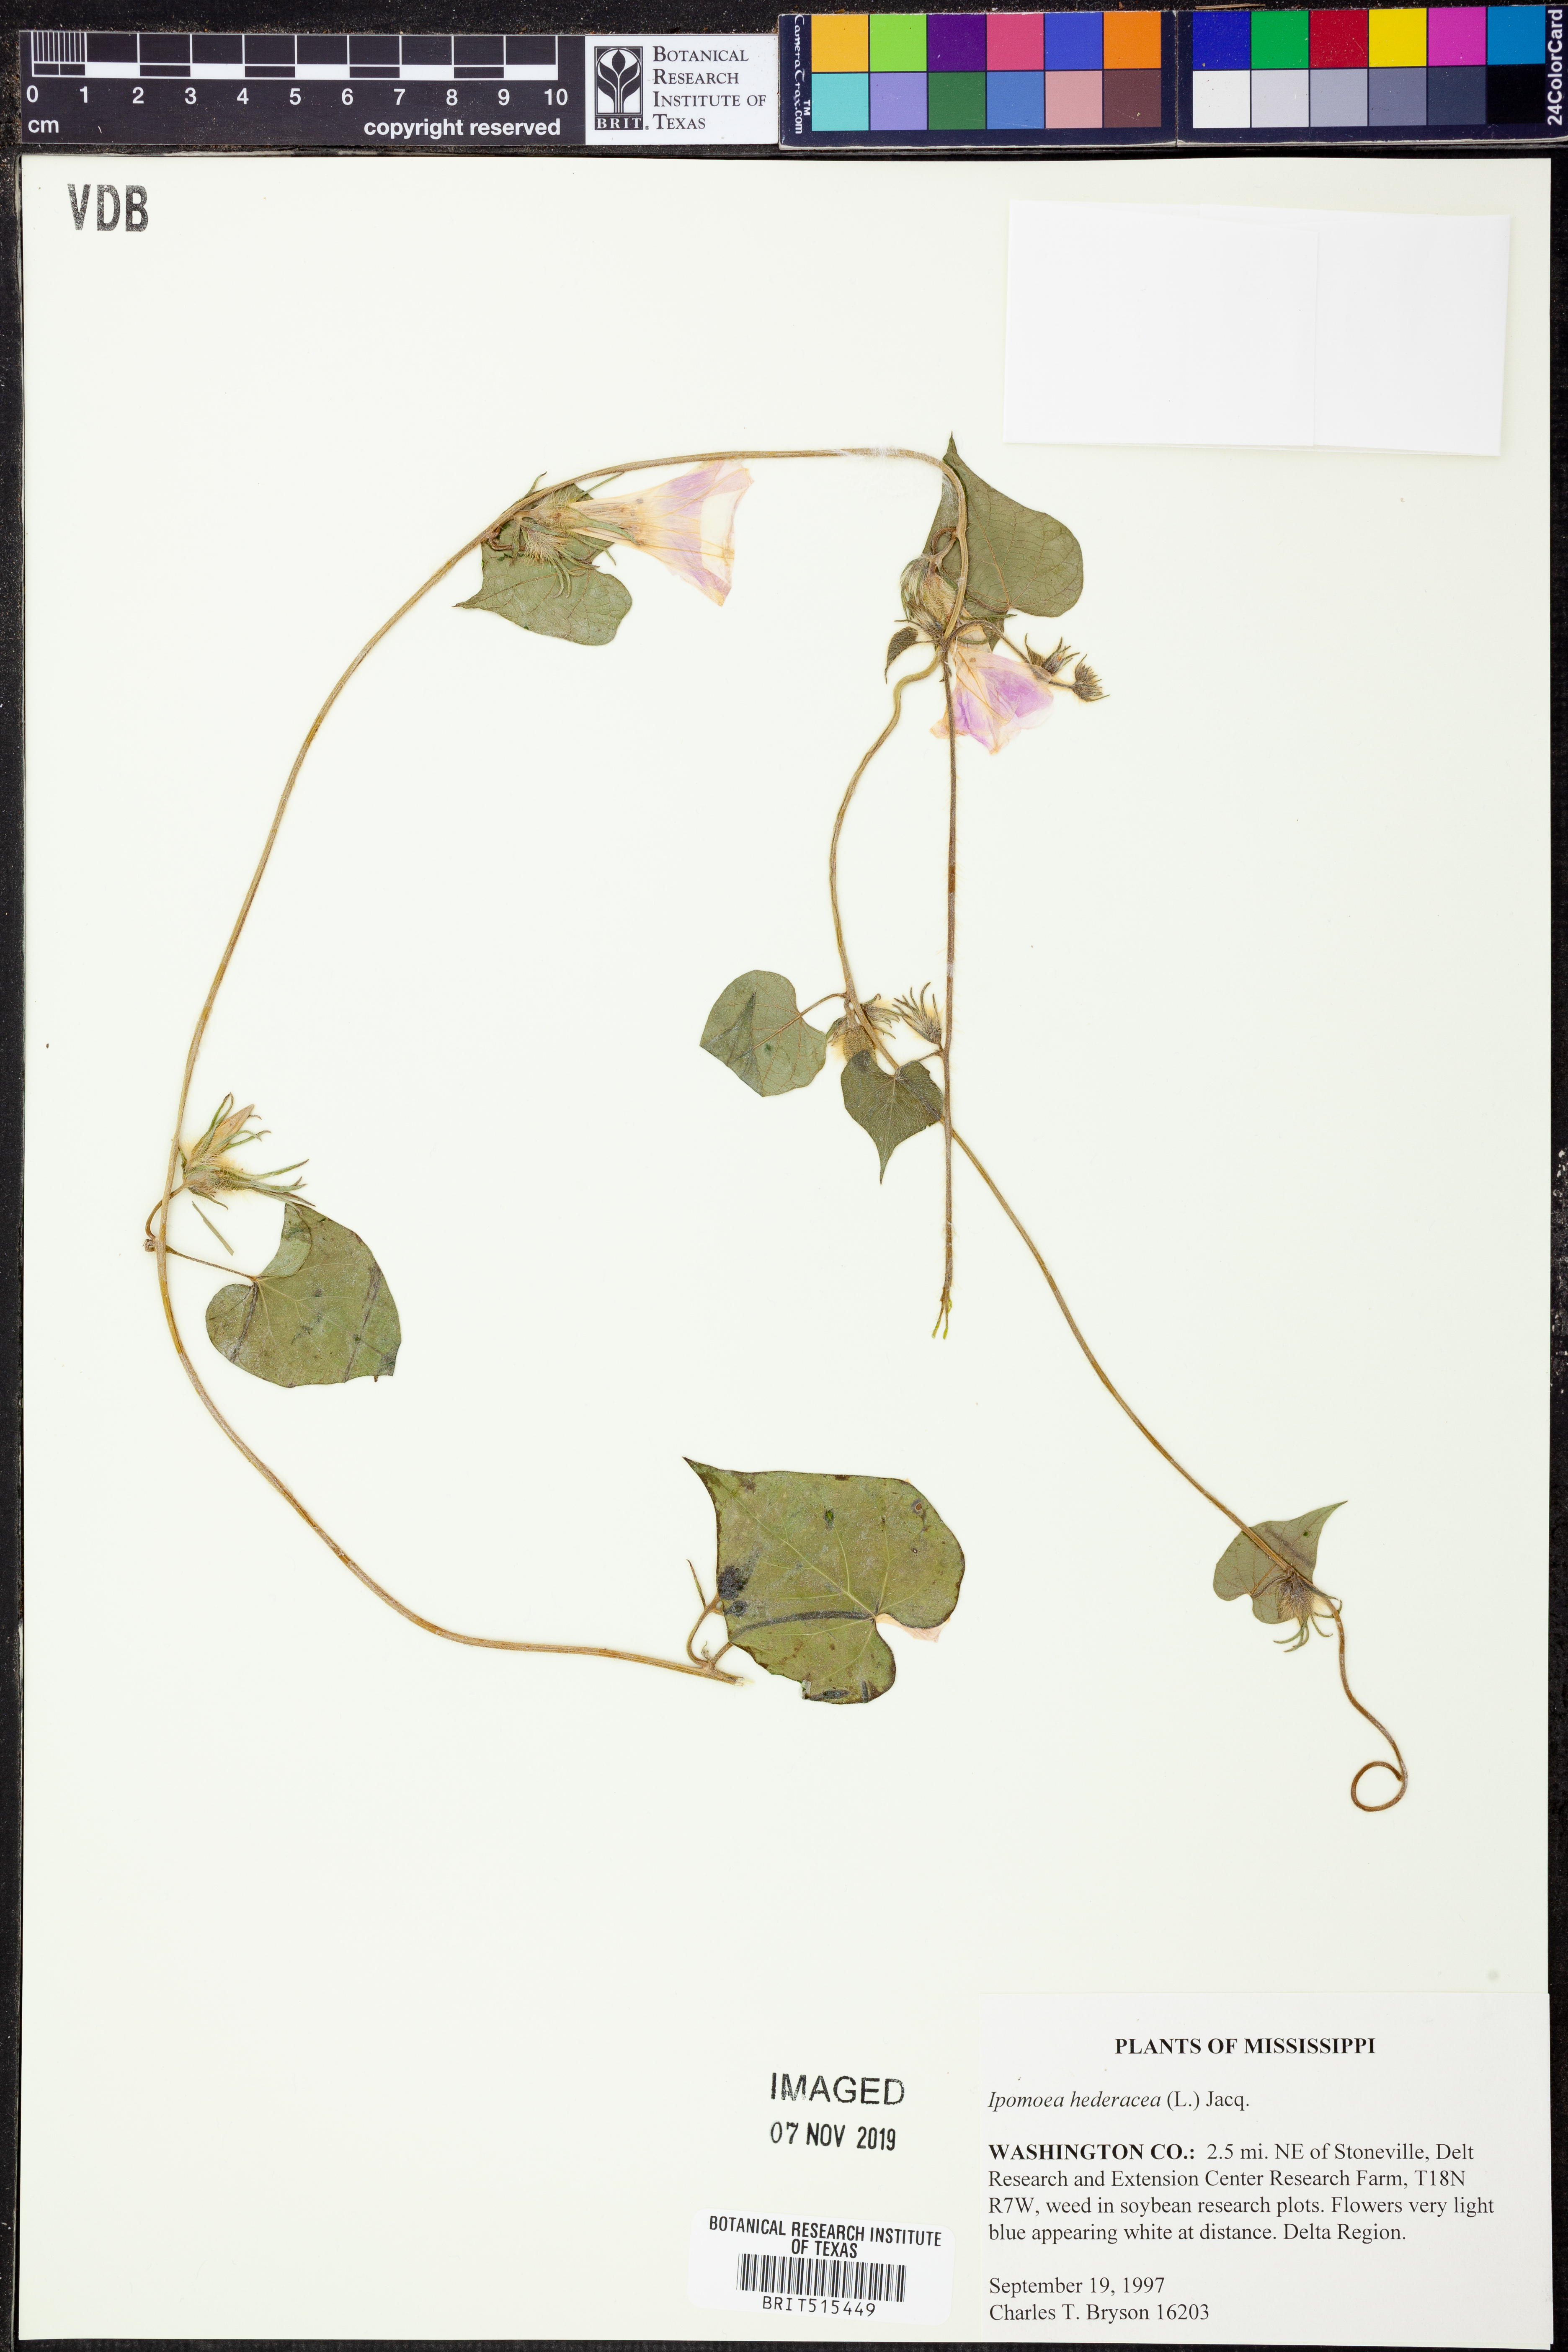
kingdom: Plantae
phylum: Tracheophyta
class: Magnoliopsida
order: Solanales
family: Convolvulaceae
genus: Ipomoea
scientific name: Ipomoea hederacea
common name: Ivy-leaved morning-glory
